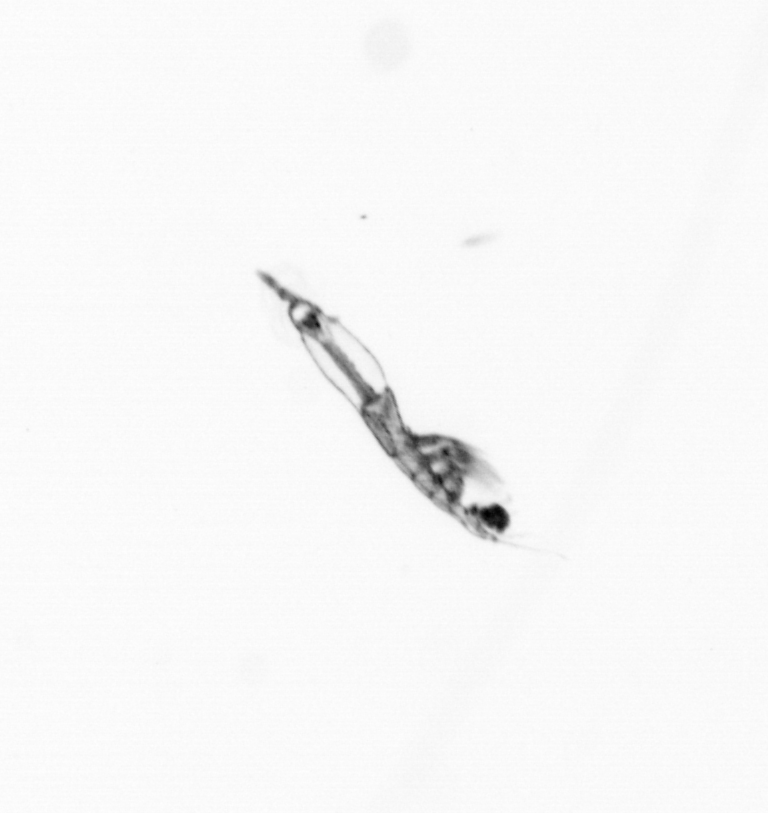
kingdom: Animalia
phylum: Arthropoda
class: Copepoda
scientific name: Copepoda
